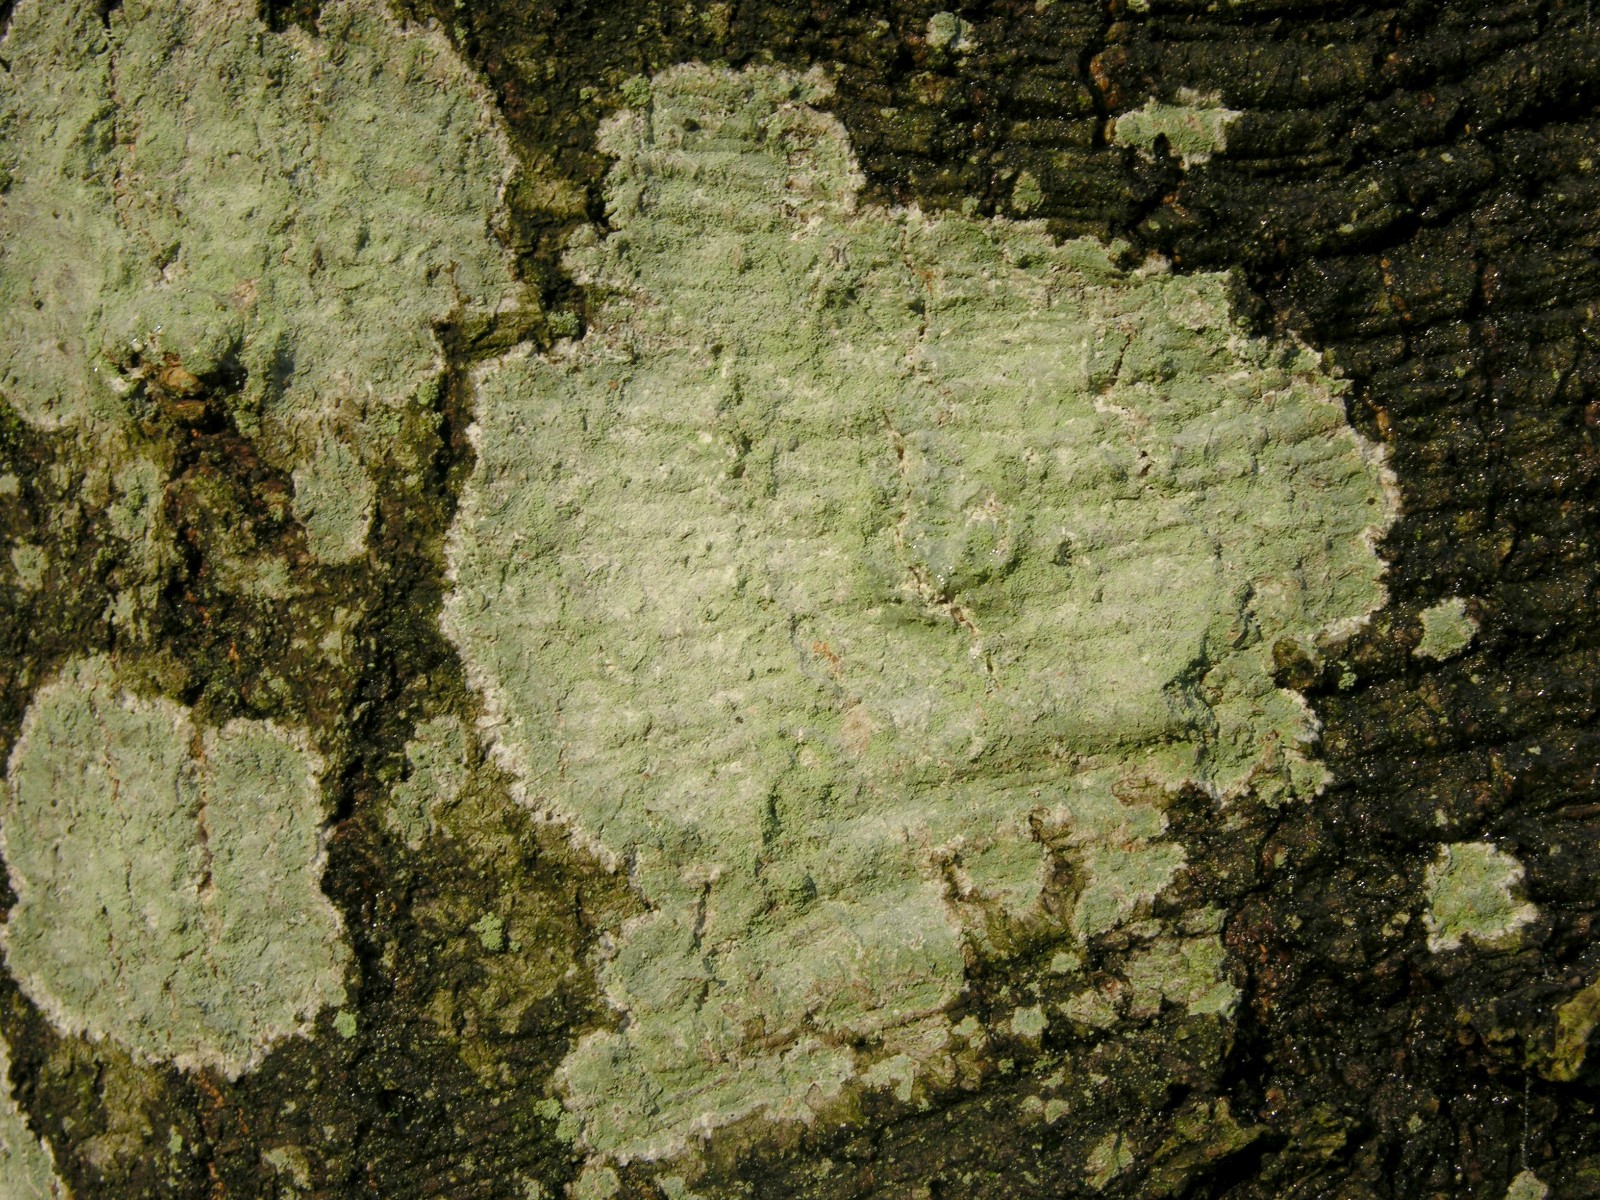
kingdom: Fungi
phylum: Ascomycota
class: Lecanoromycetes
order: Ostropales
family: Phlyctidaceae
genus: Phlyctis
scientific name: Phlyctis argena
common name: almindelig sølvlav
